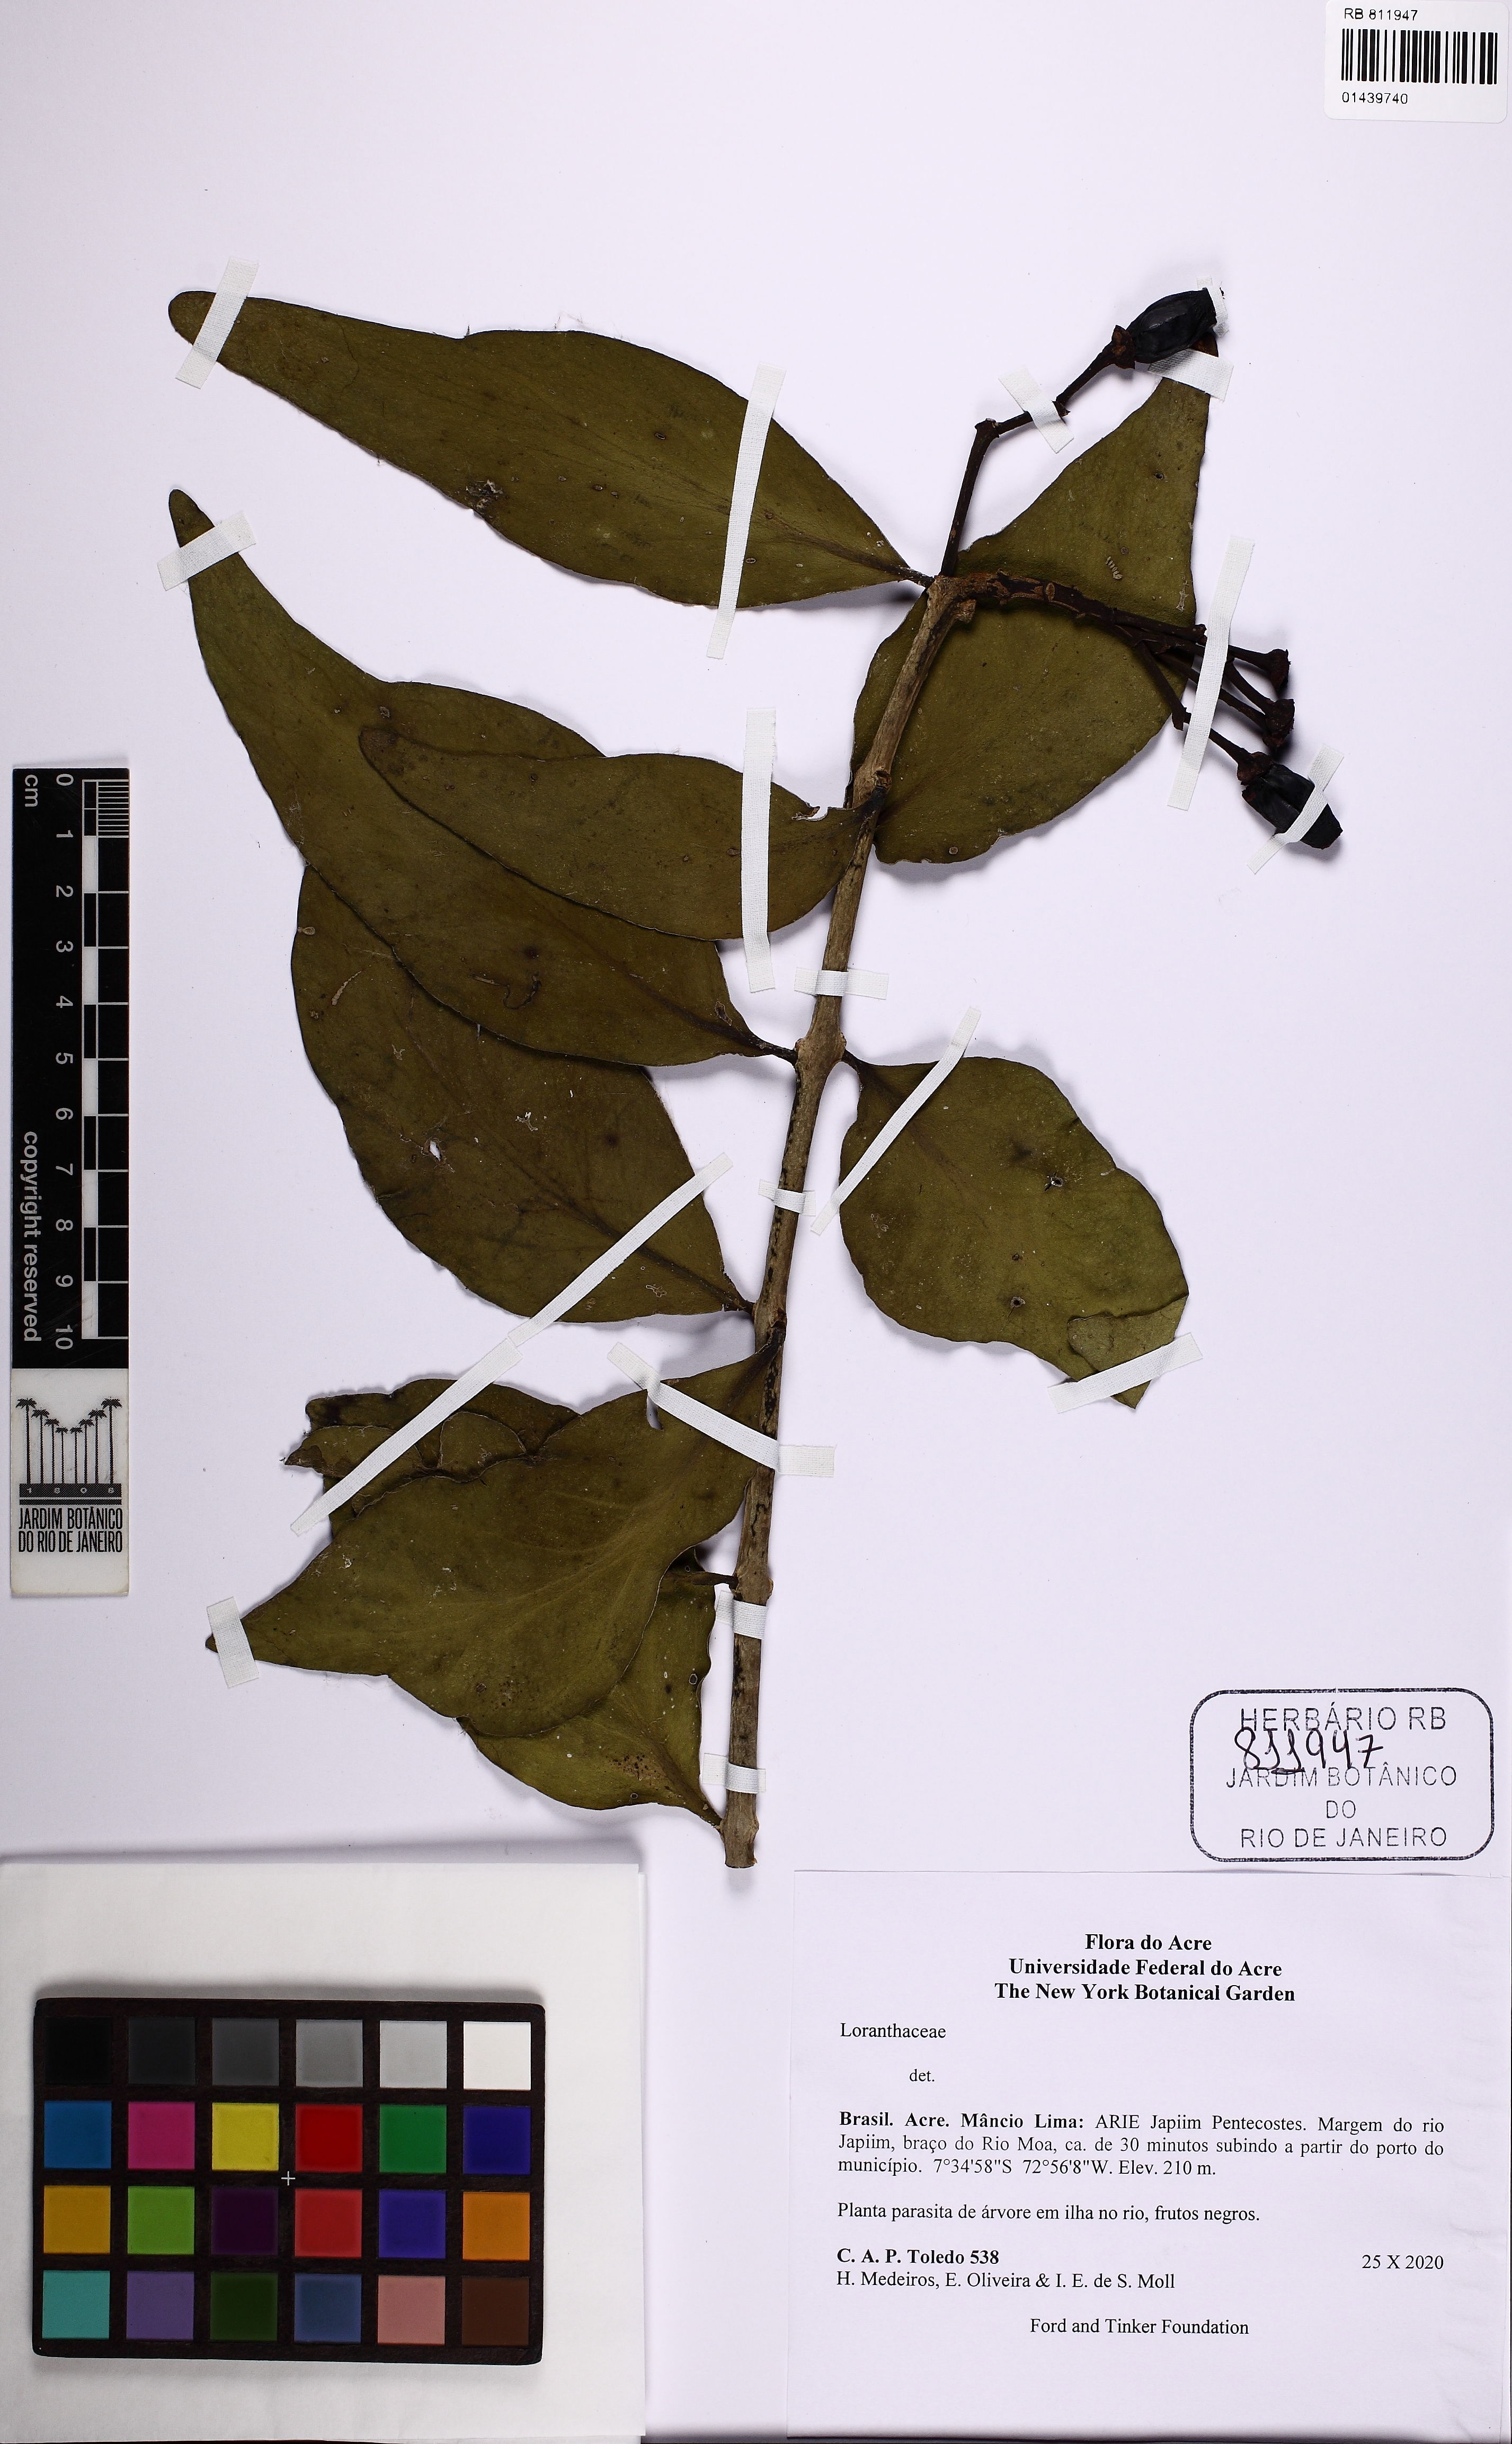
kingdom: Plantae
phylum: Tracheophyta
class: Magnoliopsida
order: Santalales
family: Loranthaceae
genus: Psittacanthus
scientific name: Psittacanthus
